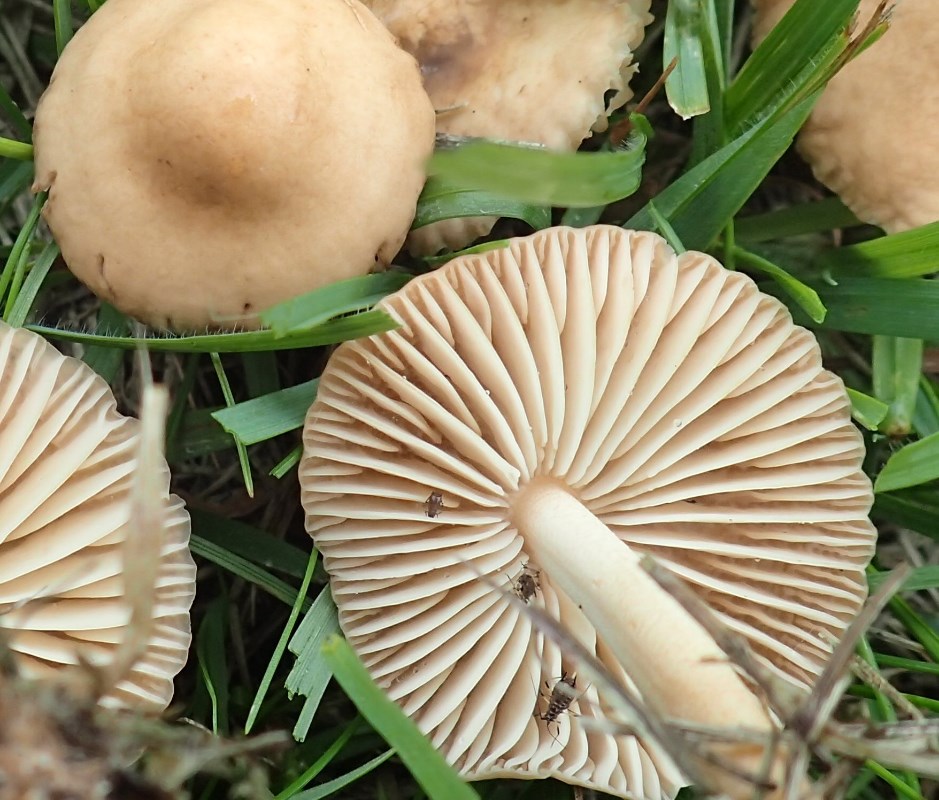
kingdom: Fungi
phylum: Basidiomycota
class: Agaricomycetes
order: Agaricales
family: Marasmiaceae
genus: Marasmius
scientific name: Marasmius oreades
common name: elledans-bruskhat
